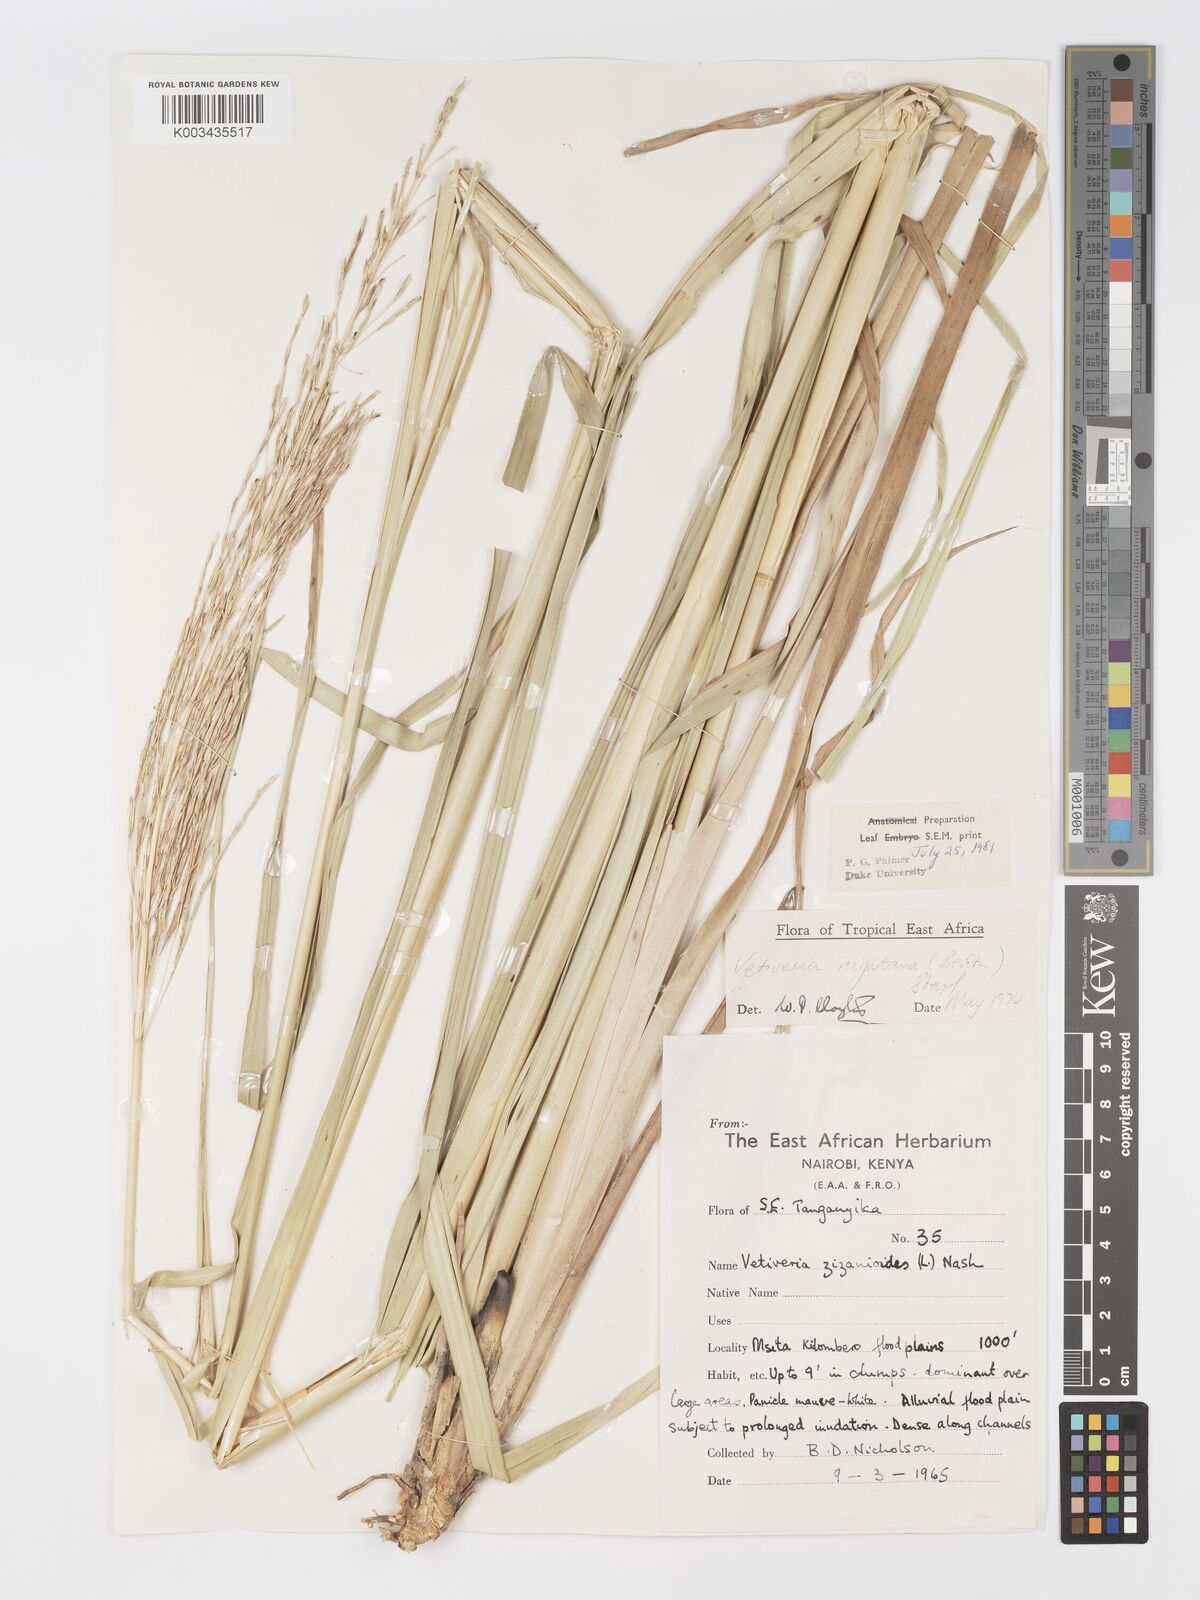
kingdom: Plantae
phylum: Tracheophyta
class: Liliopsida
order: Poales
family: Poaceae
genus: Chrysopogon
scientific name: Chrysopogon nigritanus
